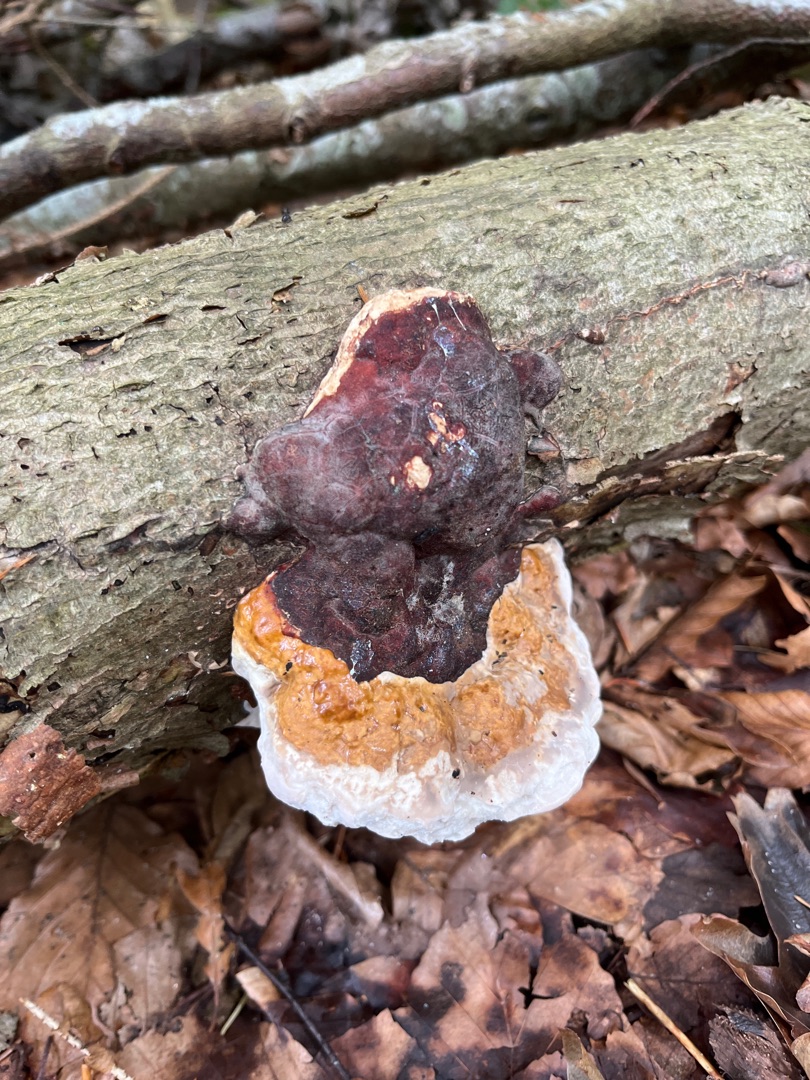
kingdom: Fungi
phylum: Basidiomycota
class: Agaricomycetes
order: Polyporales
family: Fomitopsidaceae
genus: Fomitopsis
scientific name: Fomitopsis pinicola
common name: Randbæltet hovporesvamp
